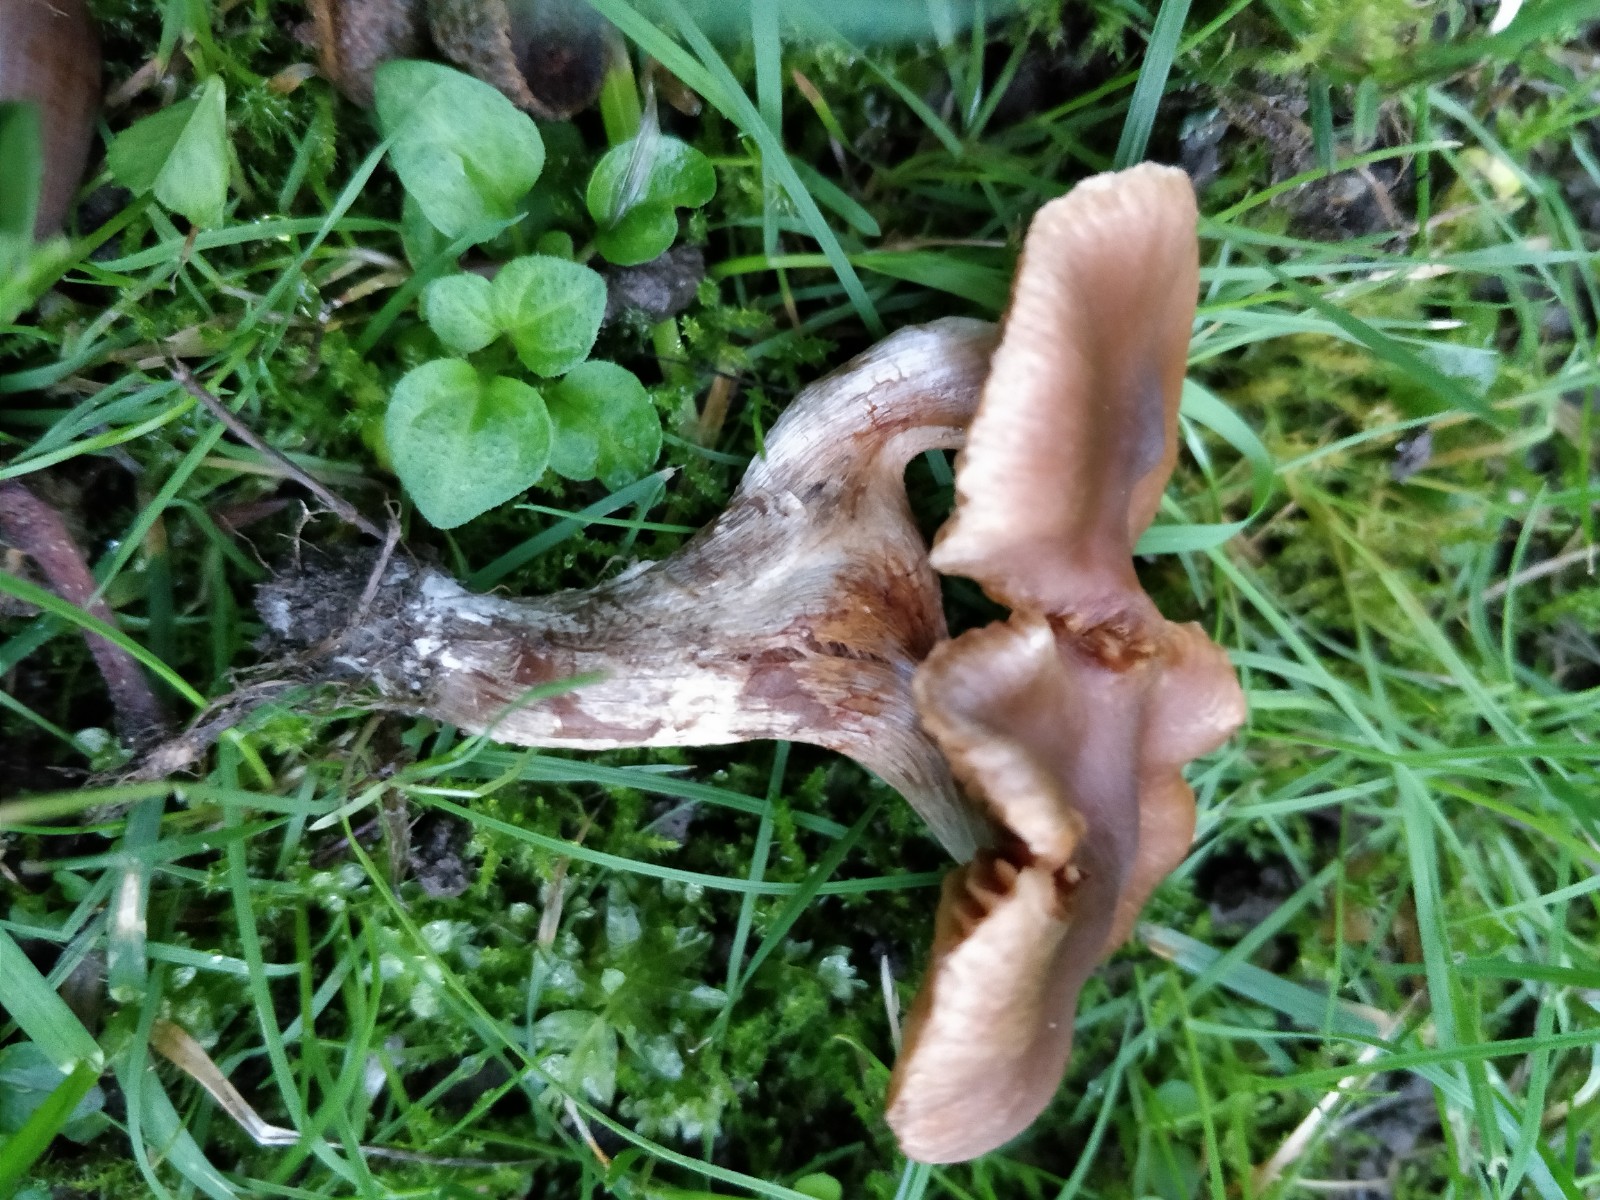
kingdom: Fungi
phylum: Basidiomycota
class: Agaricomycetes
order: Agaricales
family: Cortinariaceae
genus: Cortinarius
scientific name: Cortinarius
